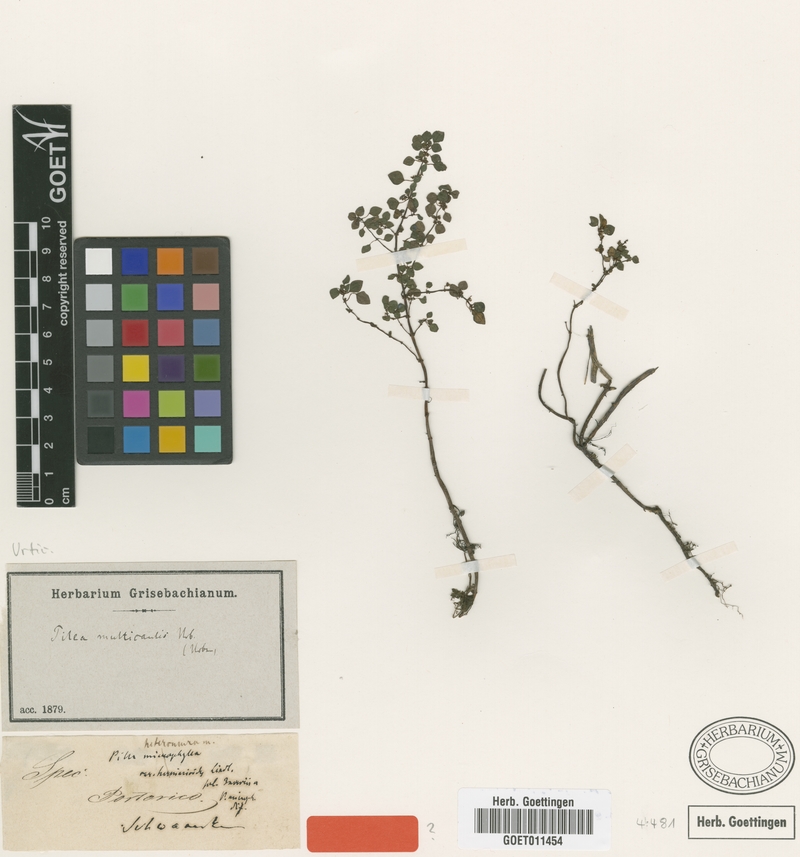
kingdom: Plantae
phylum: Tracheophyta
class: Magnoliopsida
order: Rosales
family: Urticaceae
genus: Pilea
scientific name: Pilea multicaulis
